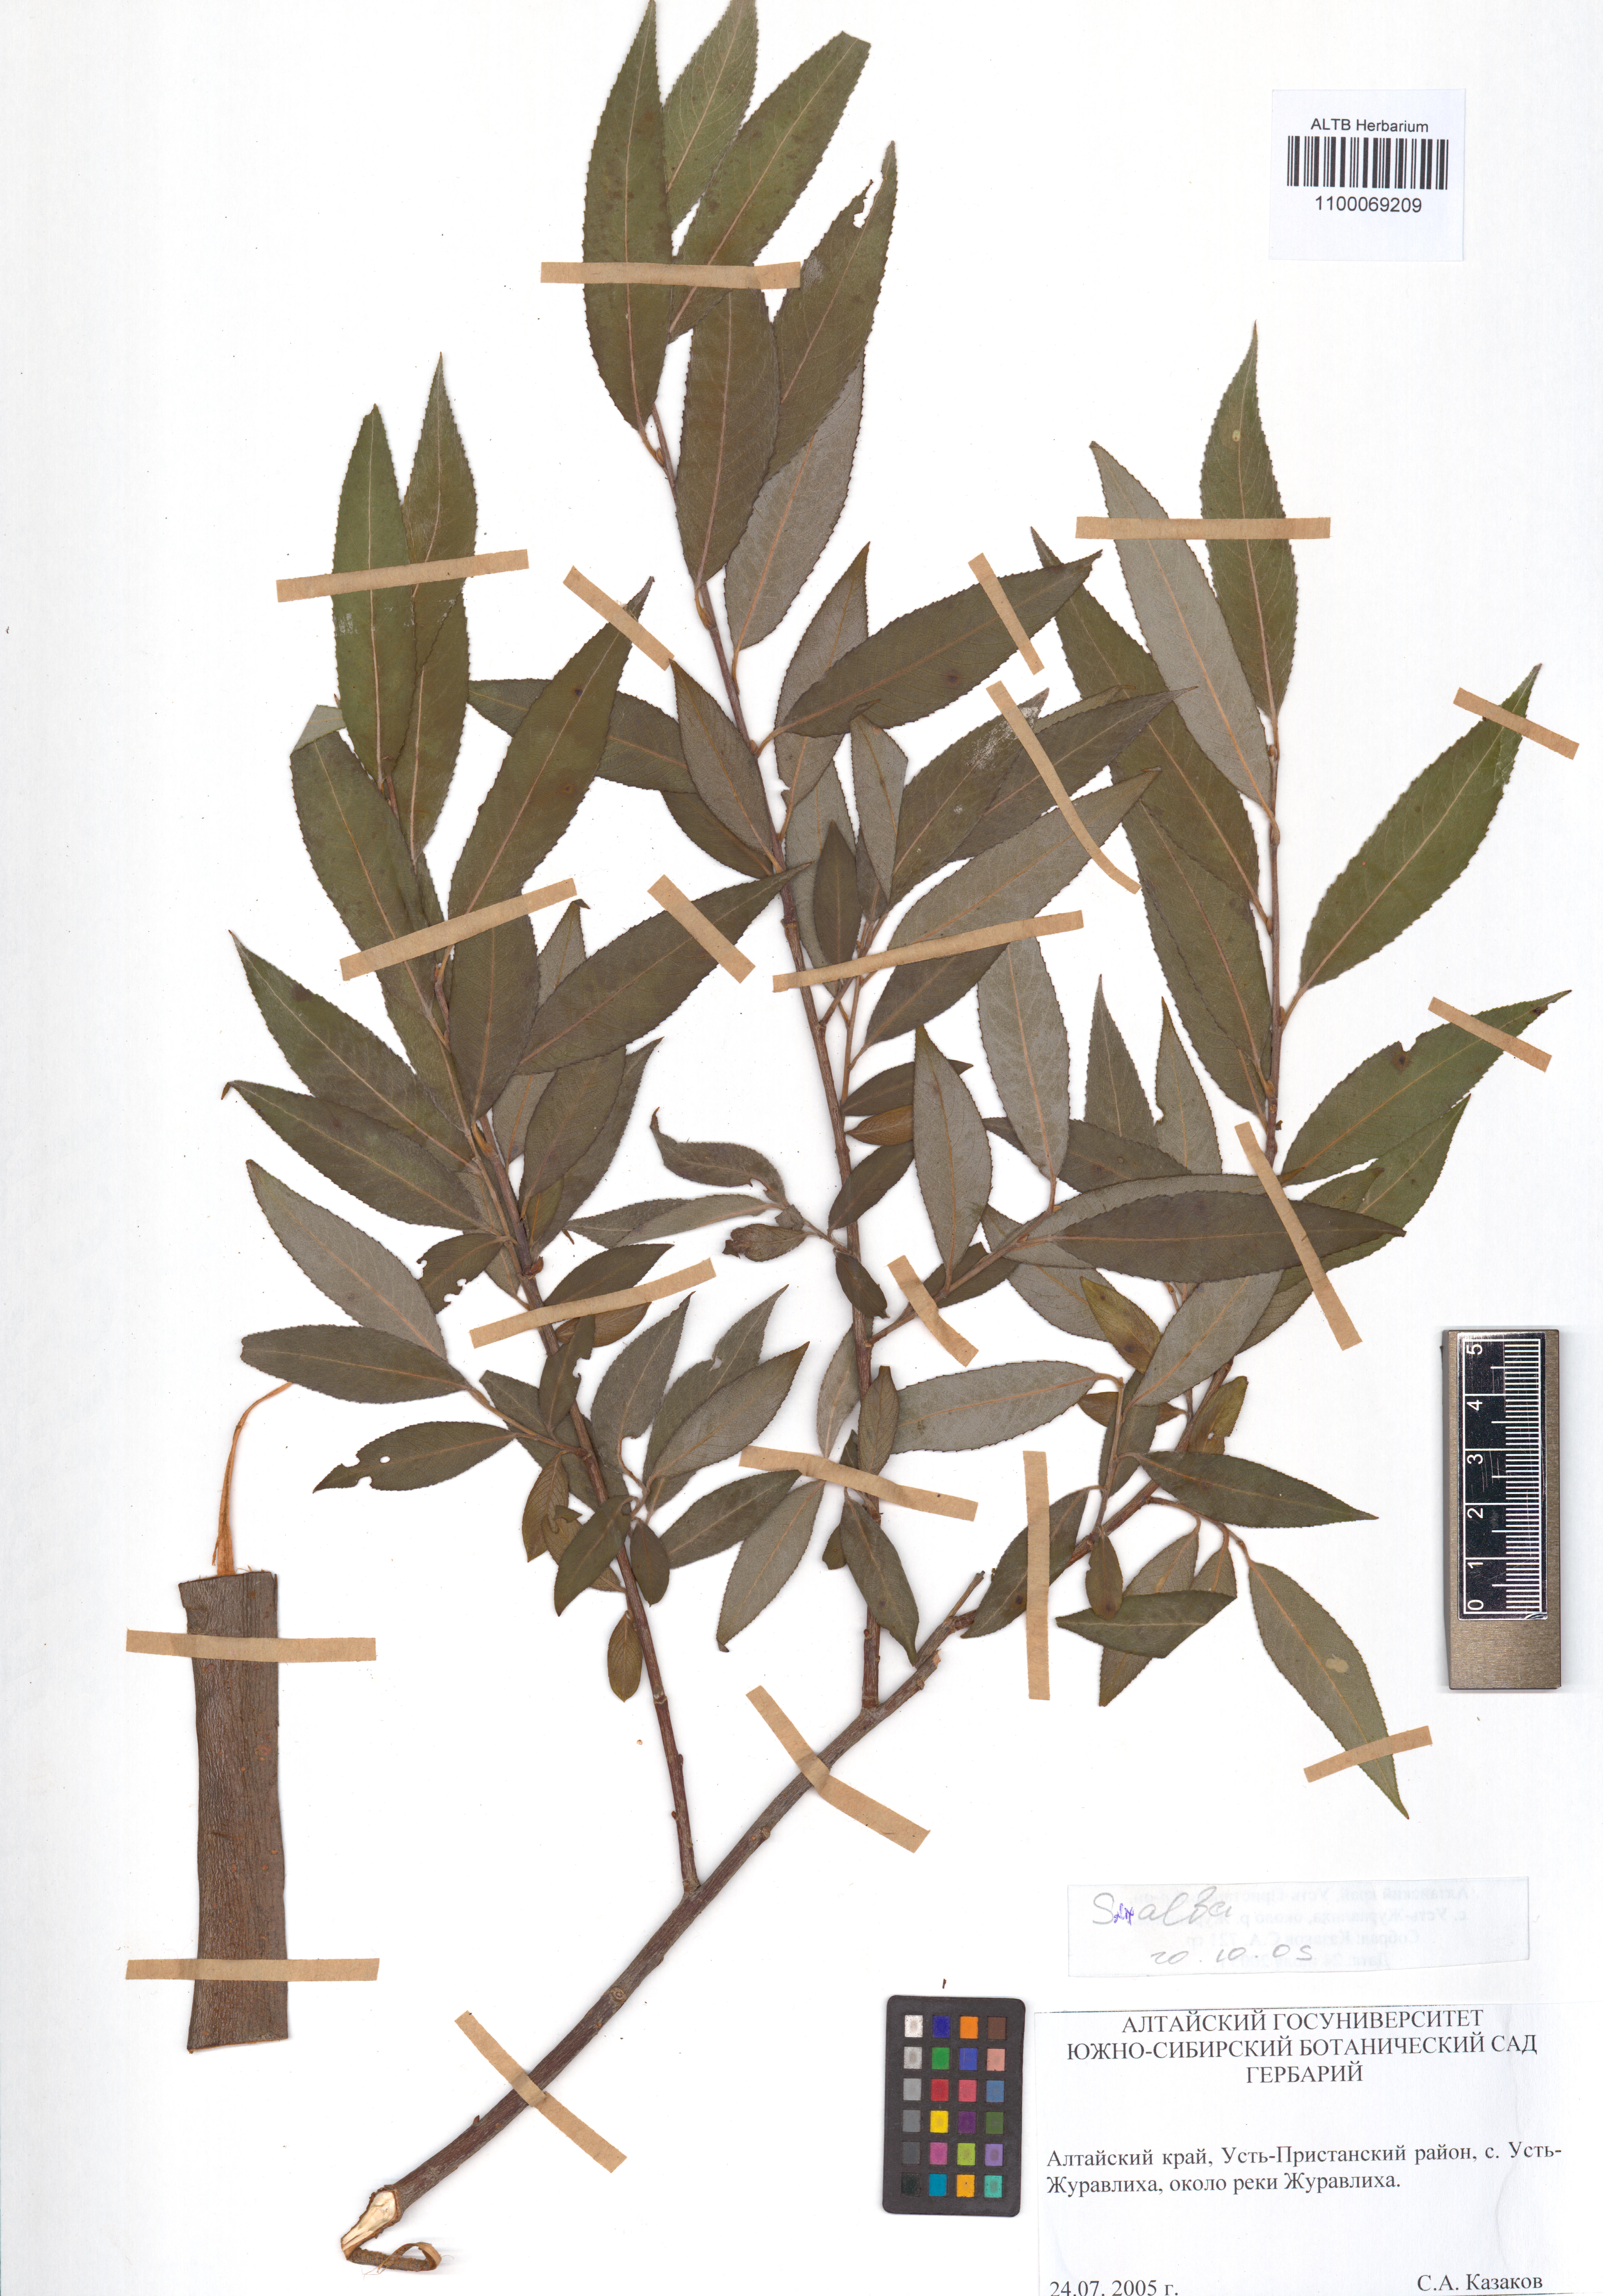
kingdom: Plantae
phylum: Tracheophyta
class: Magnoliopsida
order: Malpighiales
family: Salicaceae
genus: Salix
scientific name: Salix alba
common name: White willow
